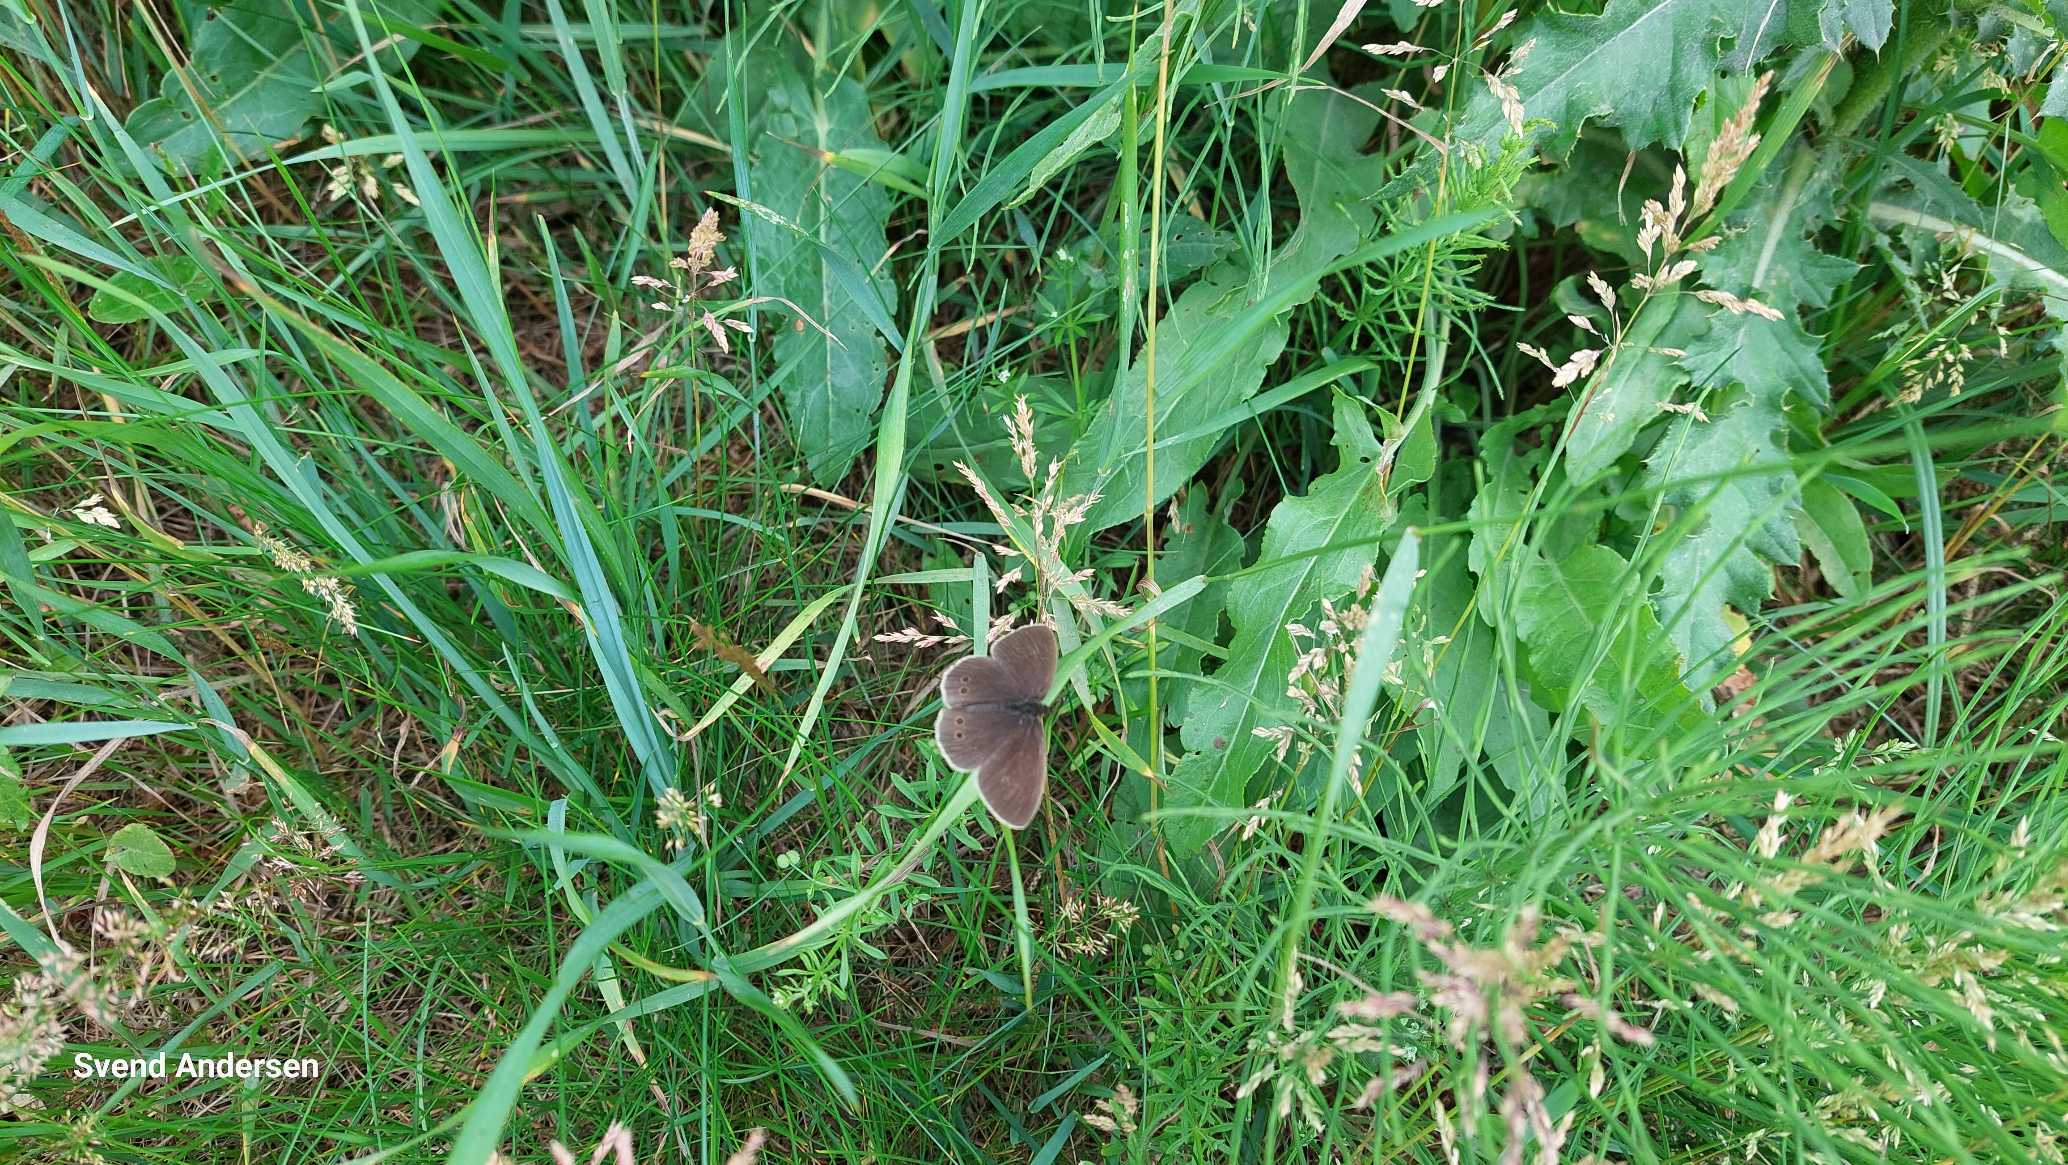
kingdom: Animalia
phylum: Arthropoda
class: Insecta
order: Lepidoptera
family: Nymphalidae
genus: Aphantopus
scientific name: Aphantopus hyperantus
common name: Engrandøje
